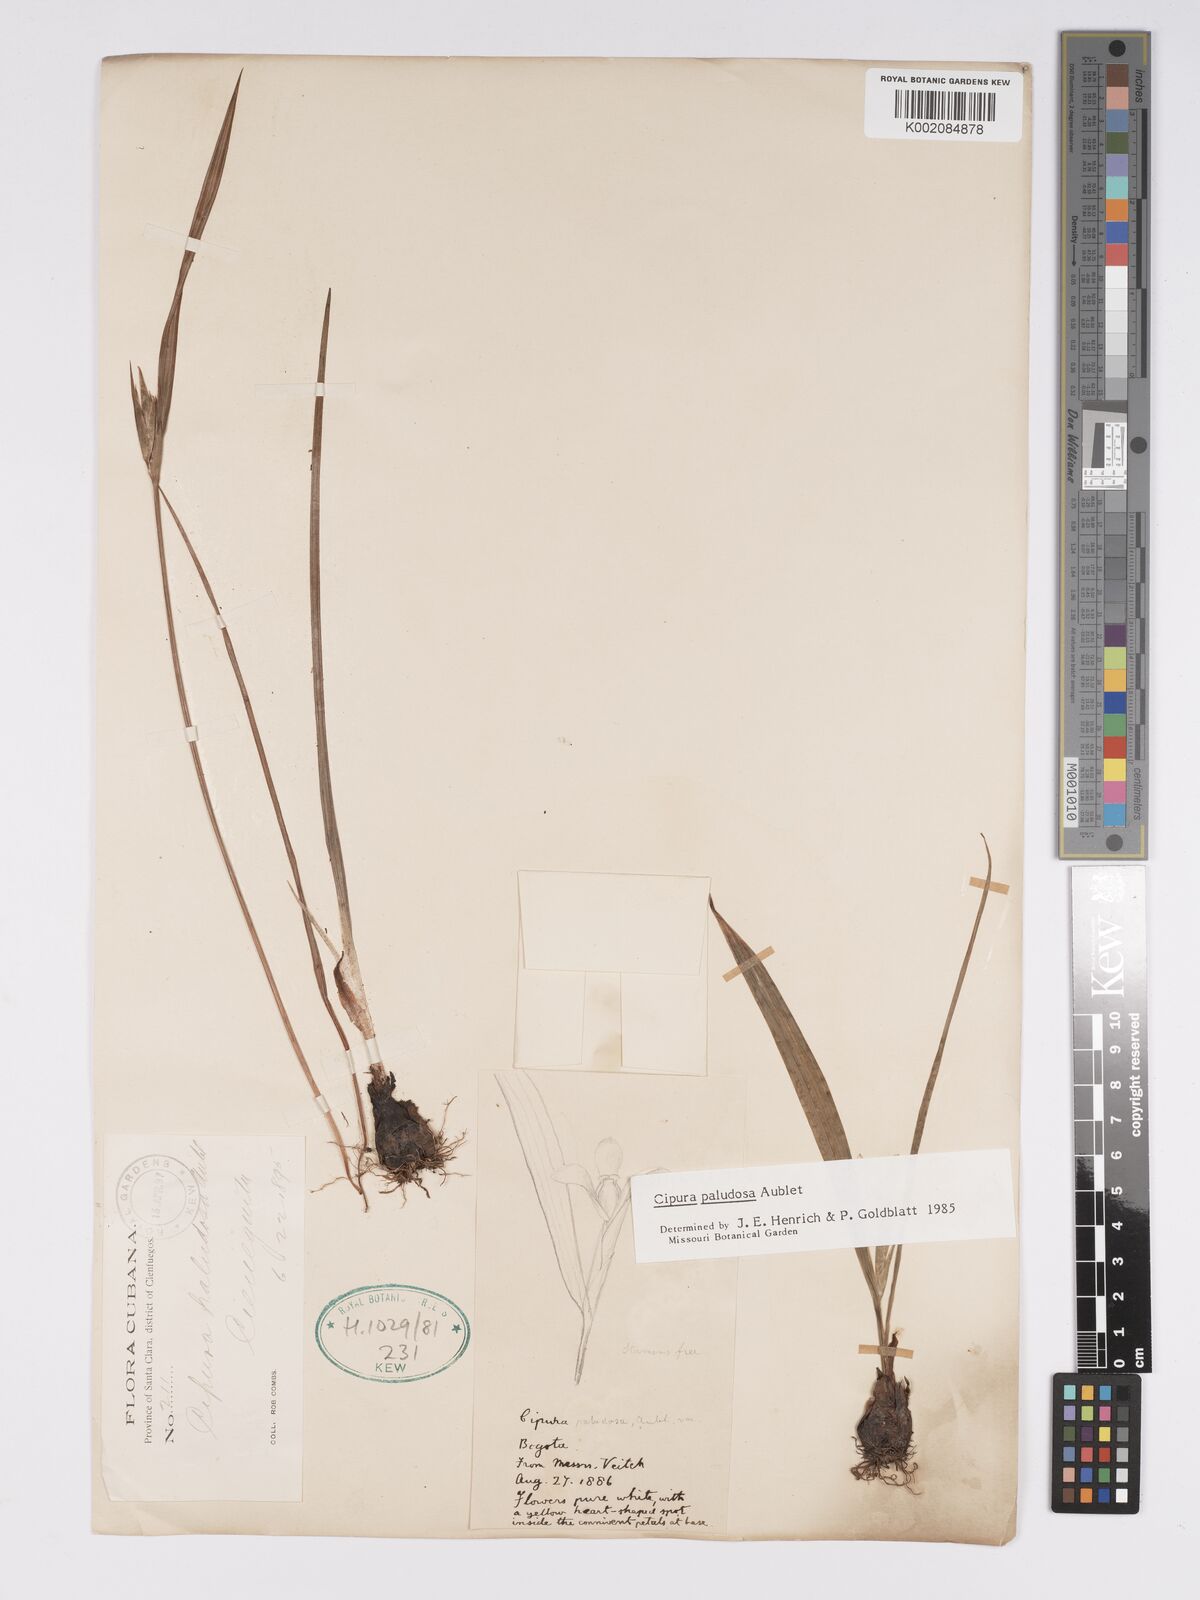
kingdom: Plantae
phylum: Tracheophyta
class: Liliopsida
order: Asparagales
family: Iridaceae
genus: Cipura
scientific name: Cipura paludosa
